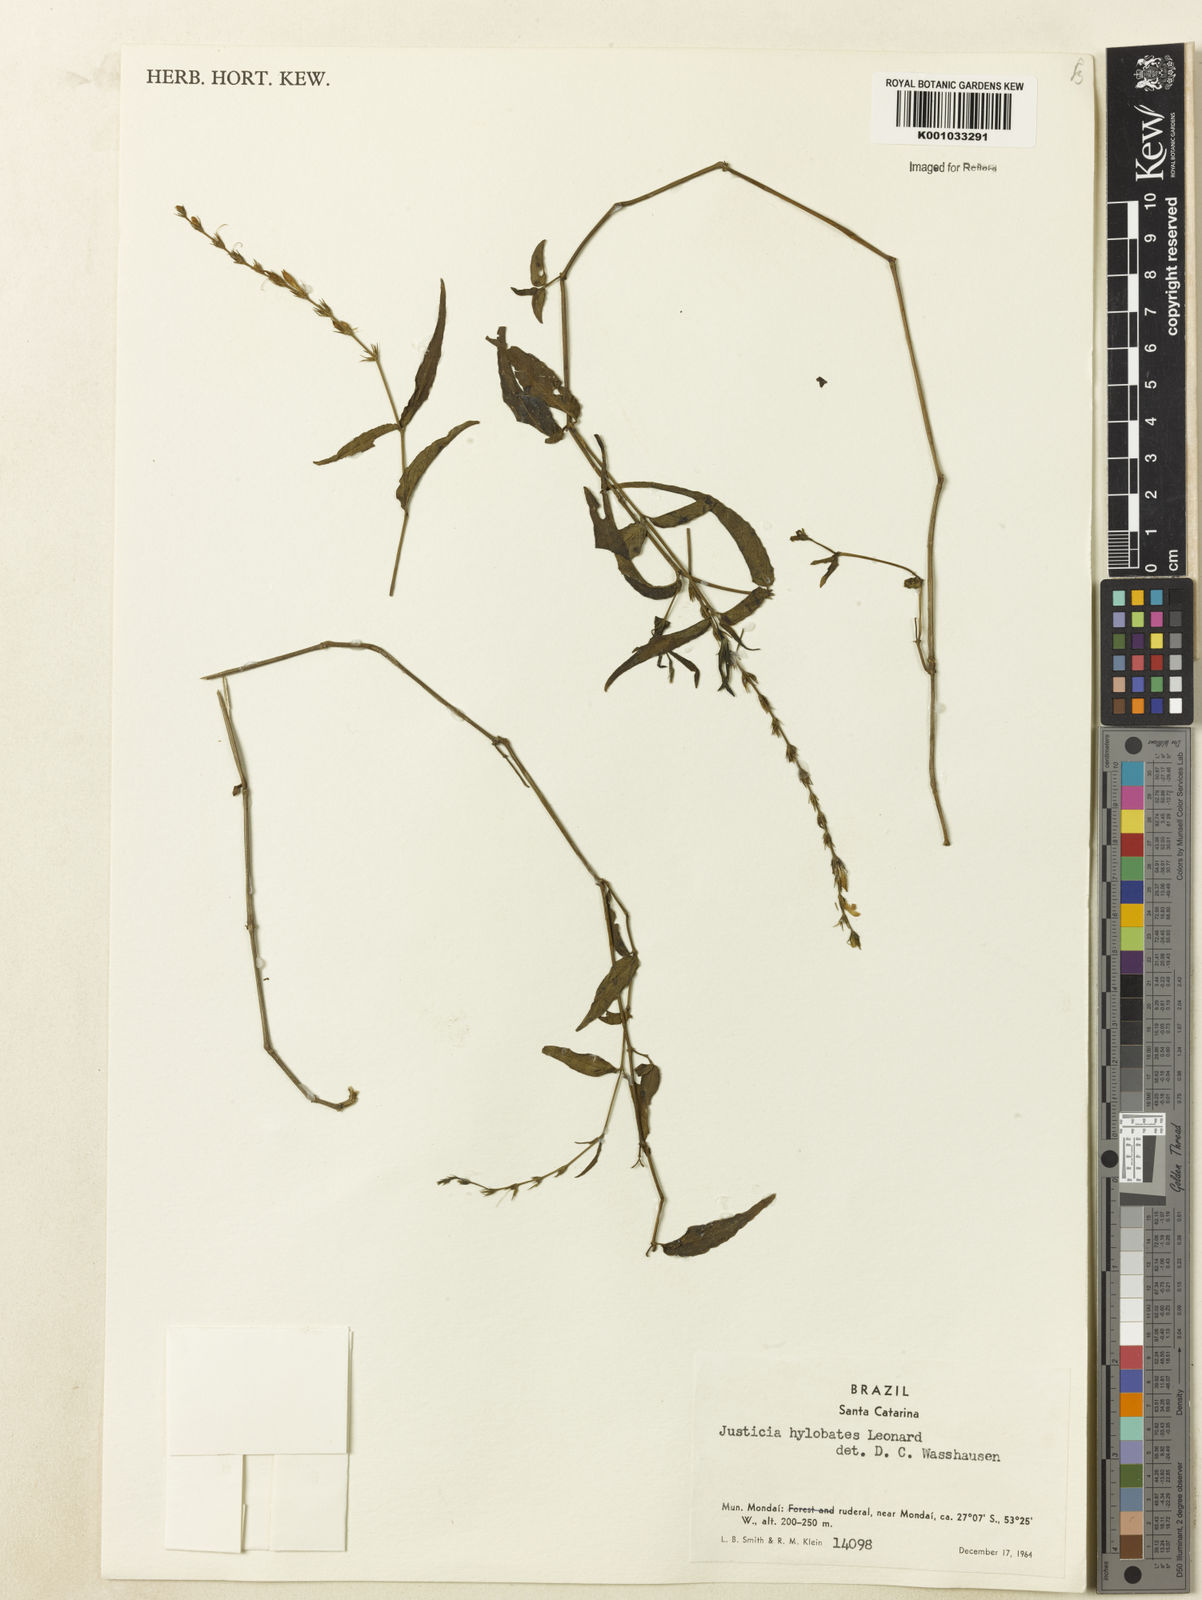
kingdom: Plantae
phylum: Tracheophyta
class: Magnoliopsida
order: Lamiales
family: Acanthaceae
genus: Justicia
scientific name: Justicia yhuensis
